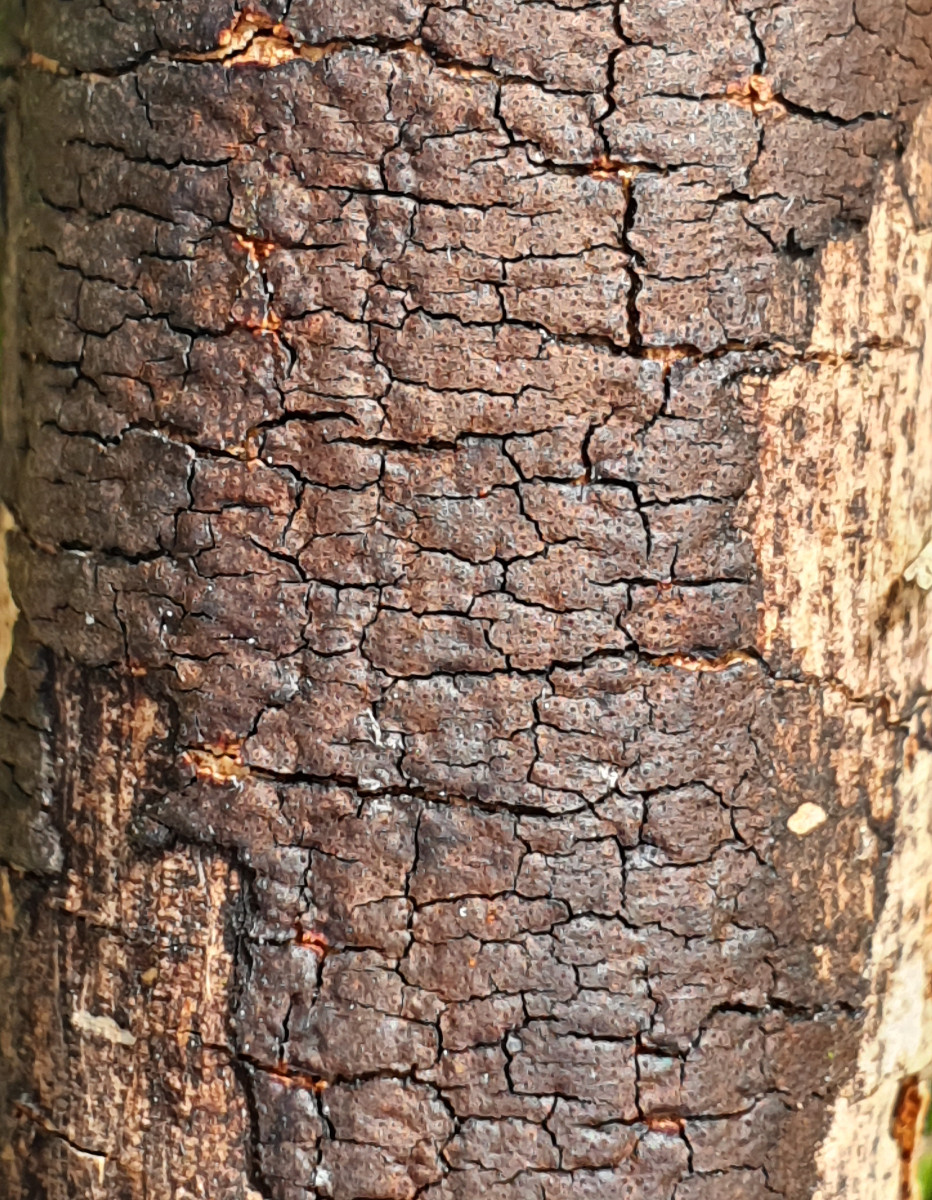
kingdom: Fungi
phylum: Ascomycota
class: Sordariomycetes
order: Xylariales
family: Diatrypaceae
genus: Diatrype
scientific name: Diatrype decorticata
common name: barksprænger-kulskorpe
